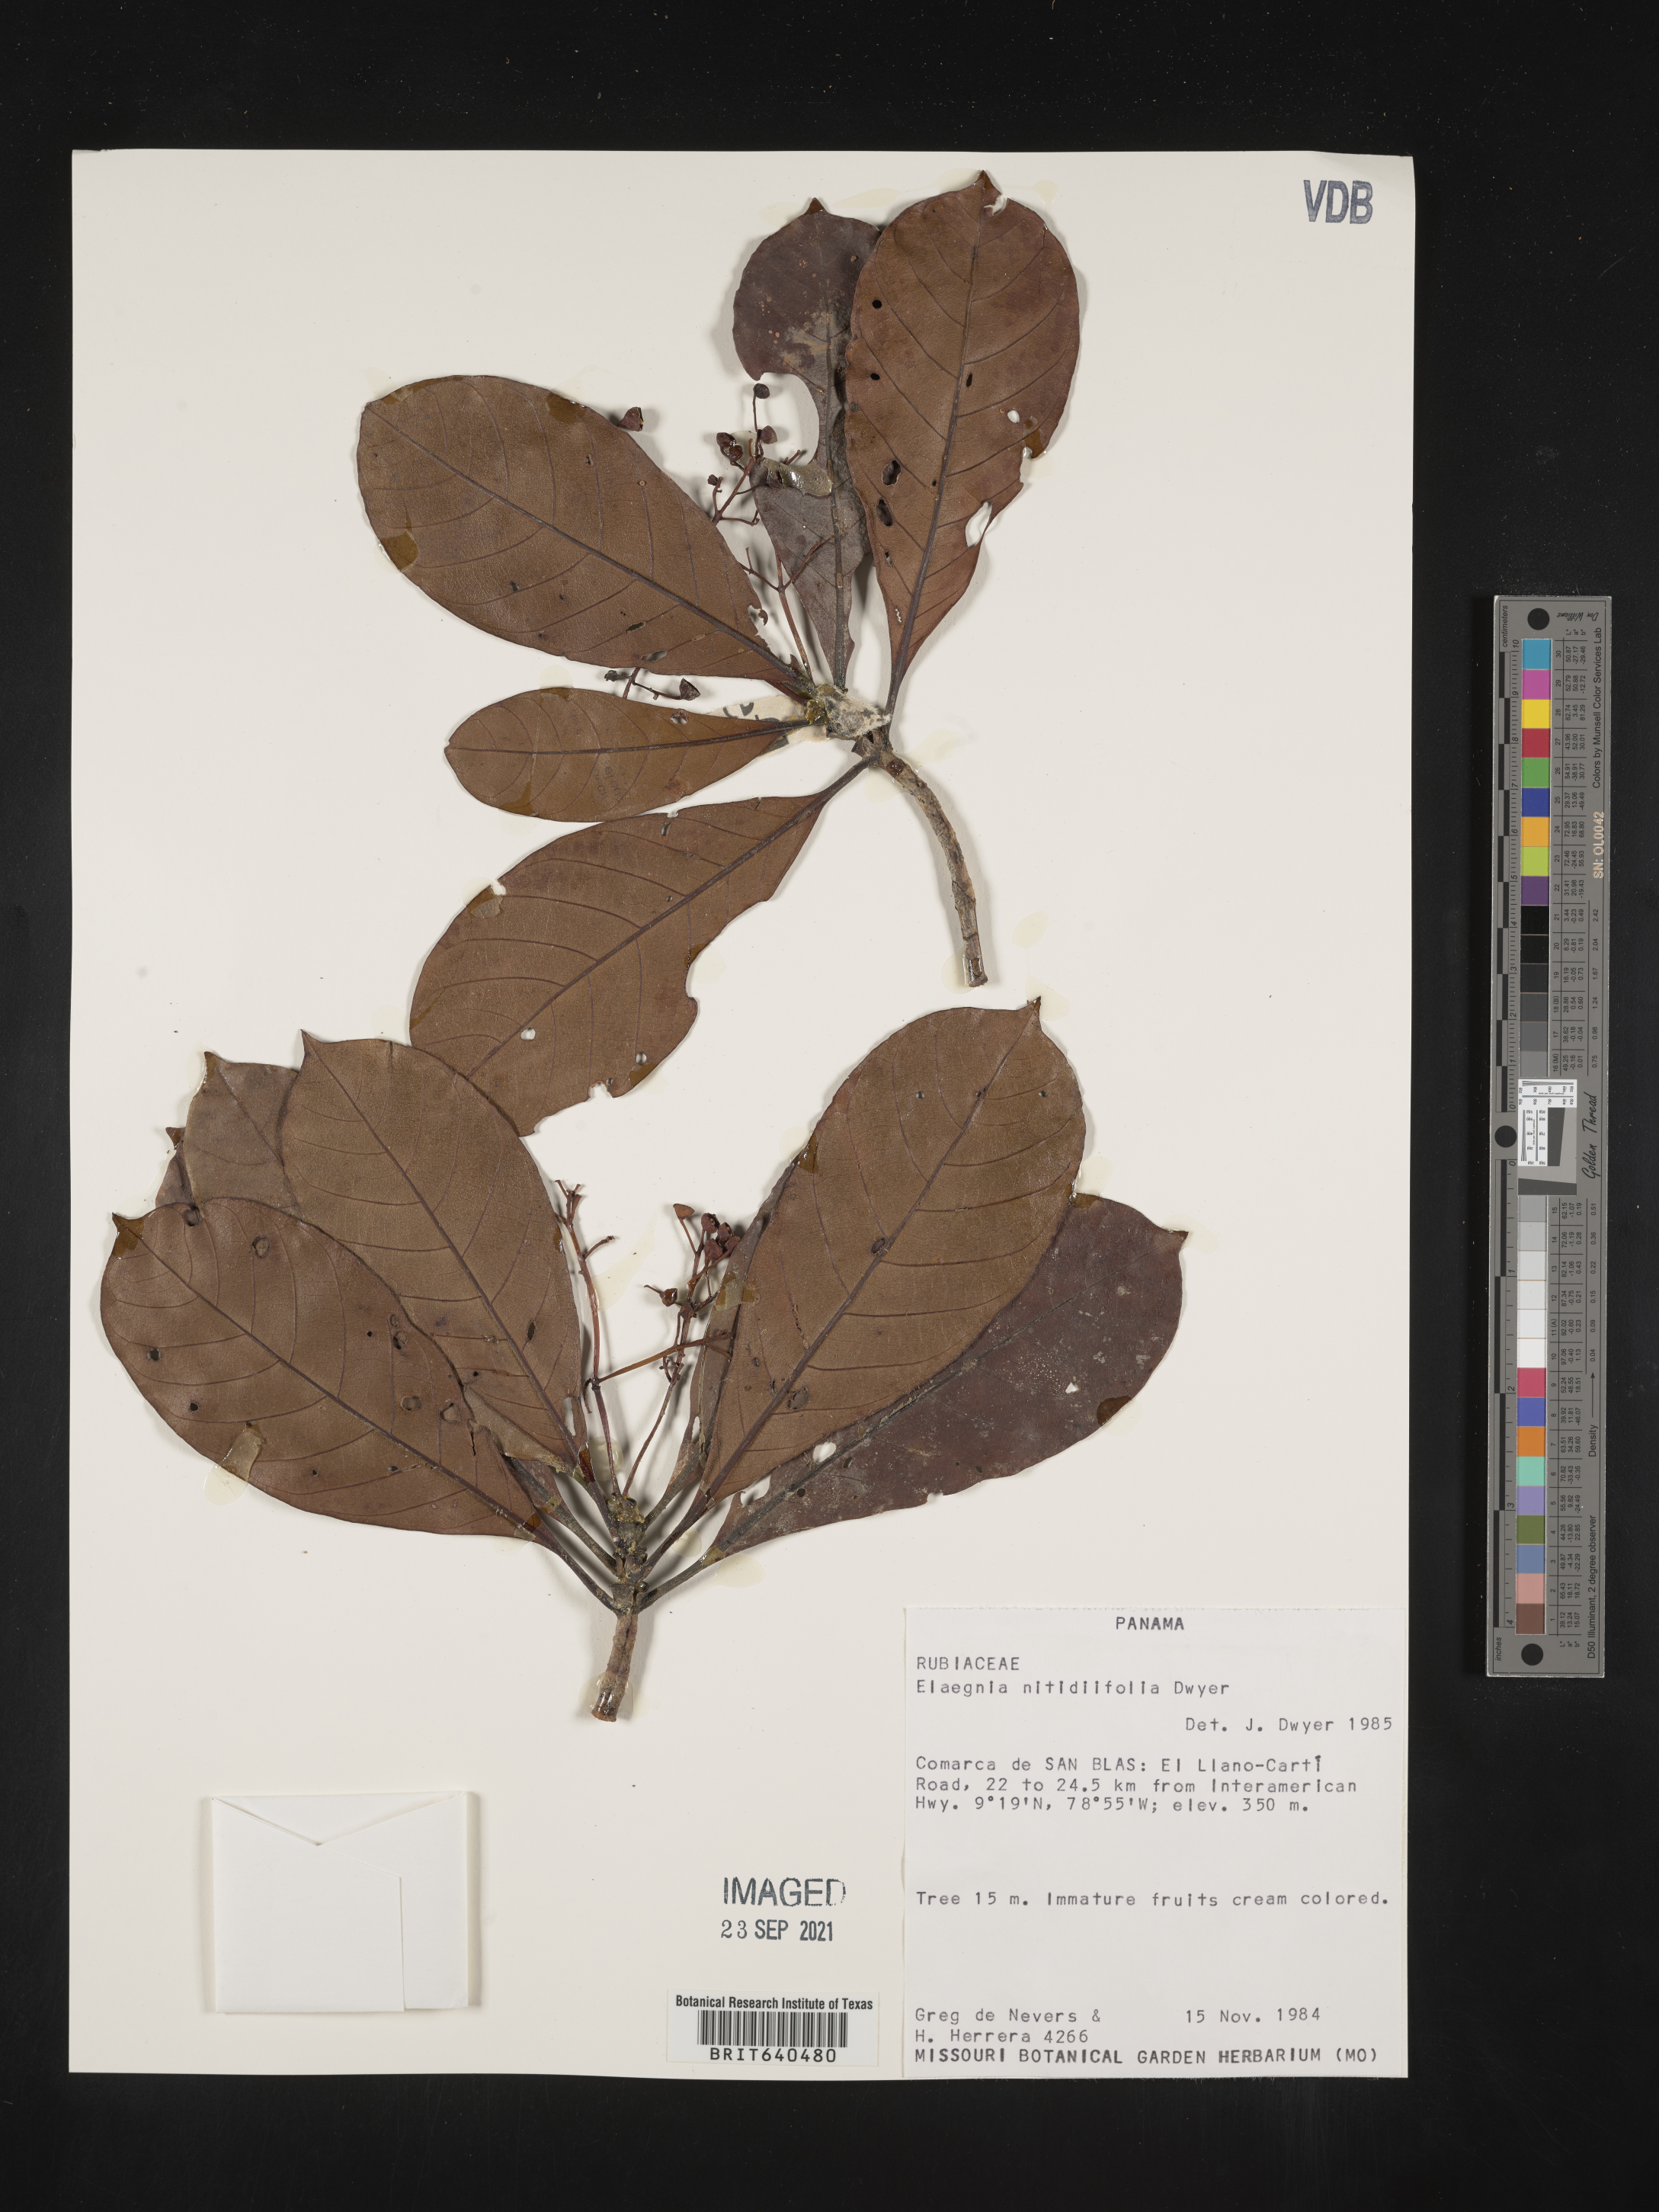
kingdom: Plantae
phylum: Tracheophyta
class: Magnoliopsida
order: Gentianales
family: Rubiaceae
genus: Elaeagia
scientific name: Elaeagia
